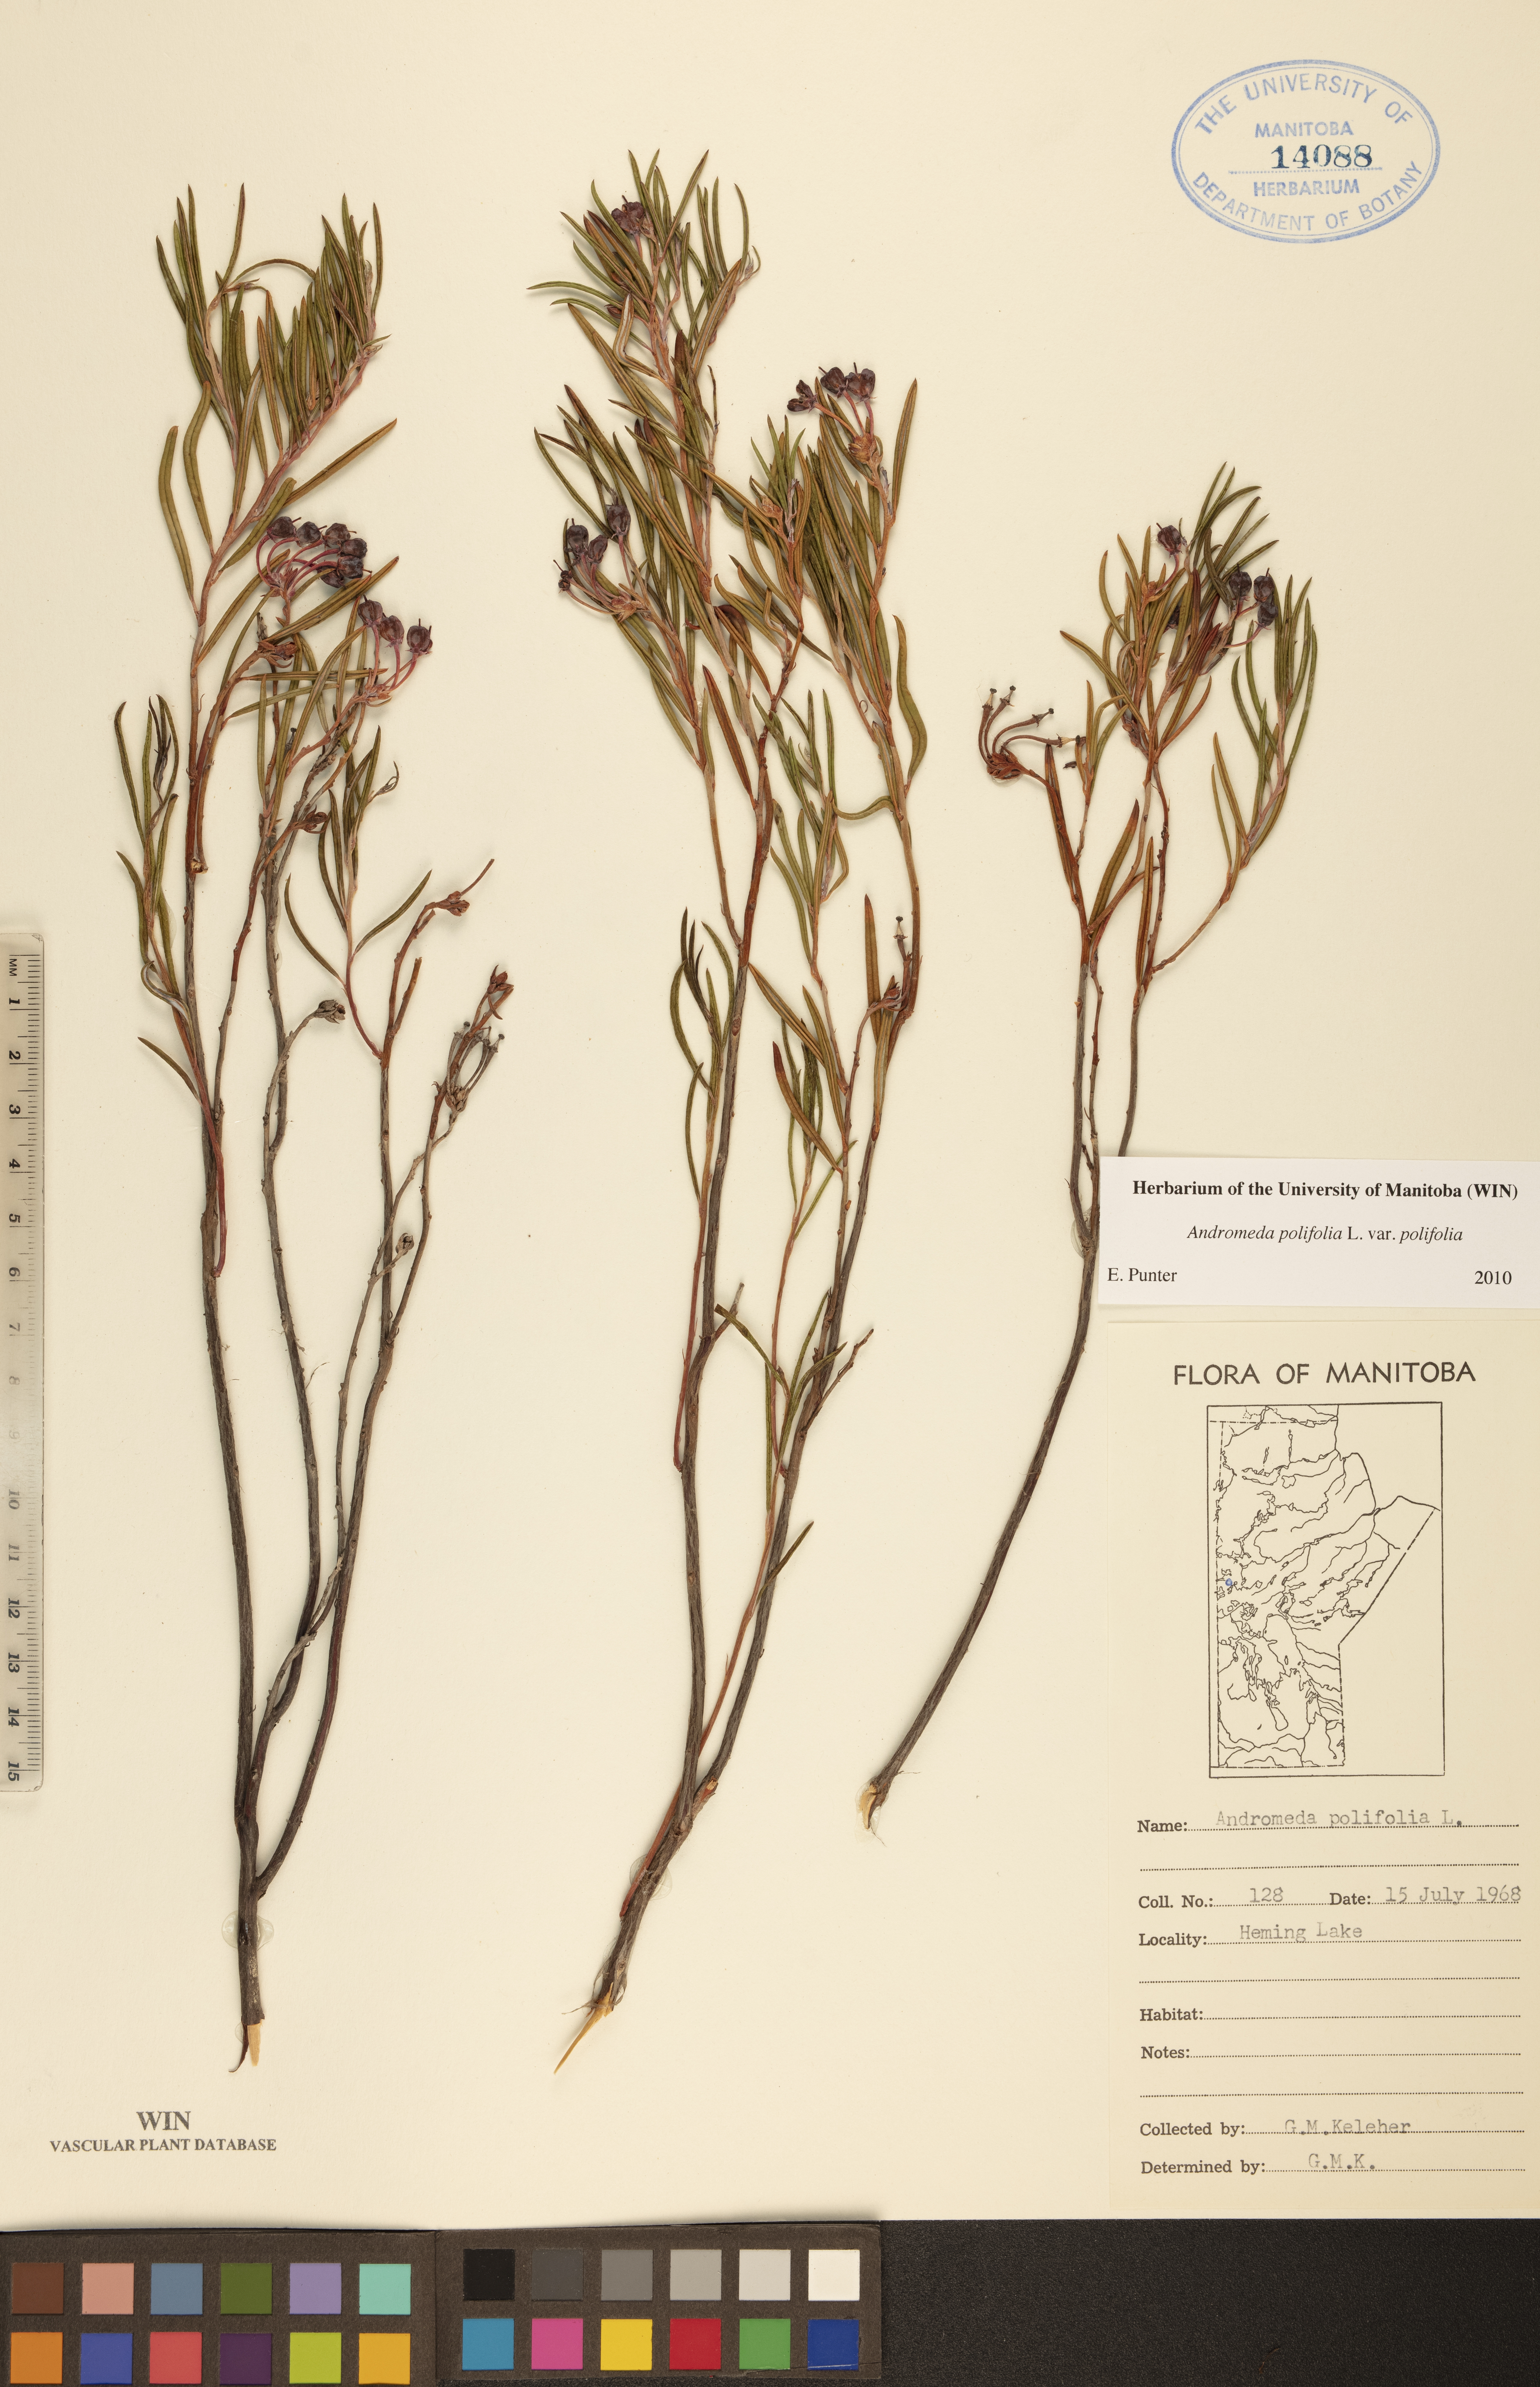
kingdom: Plantae
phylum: Tracheophyta
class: Magnoliopsida
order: Ericales
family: Ericaceae
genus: Andromeda
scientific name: Andromeda polifolia
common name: Bog-rosemary
